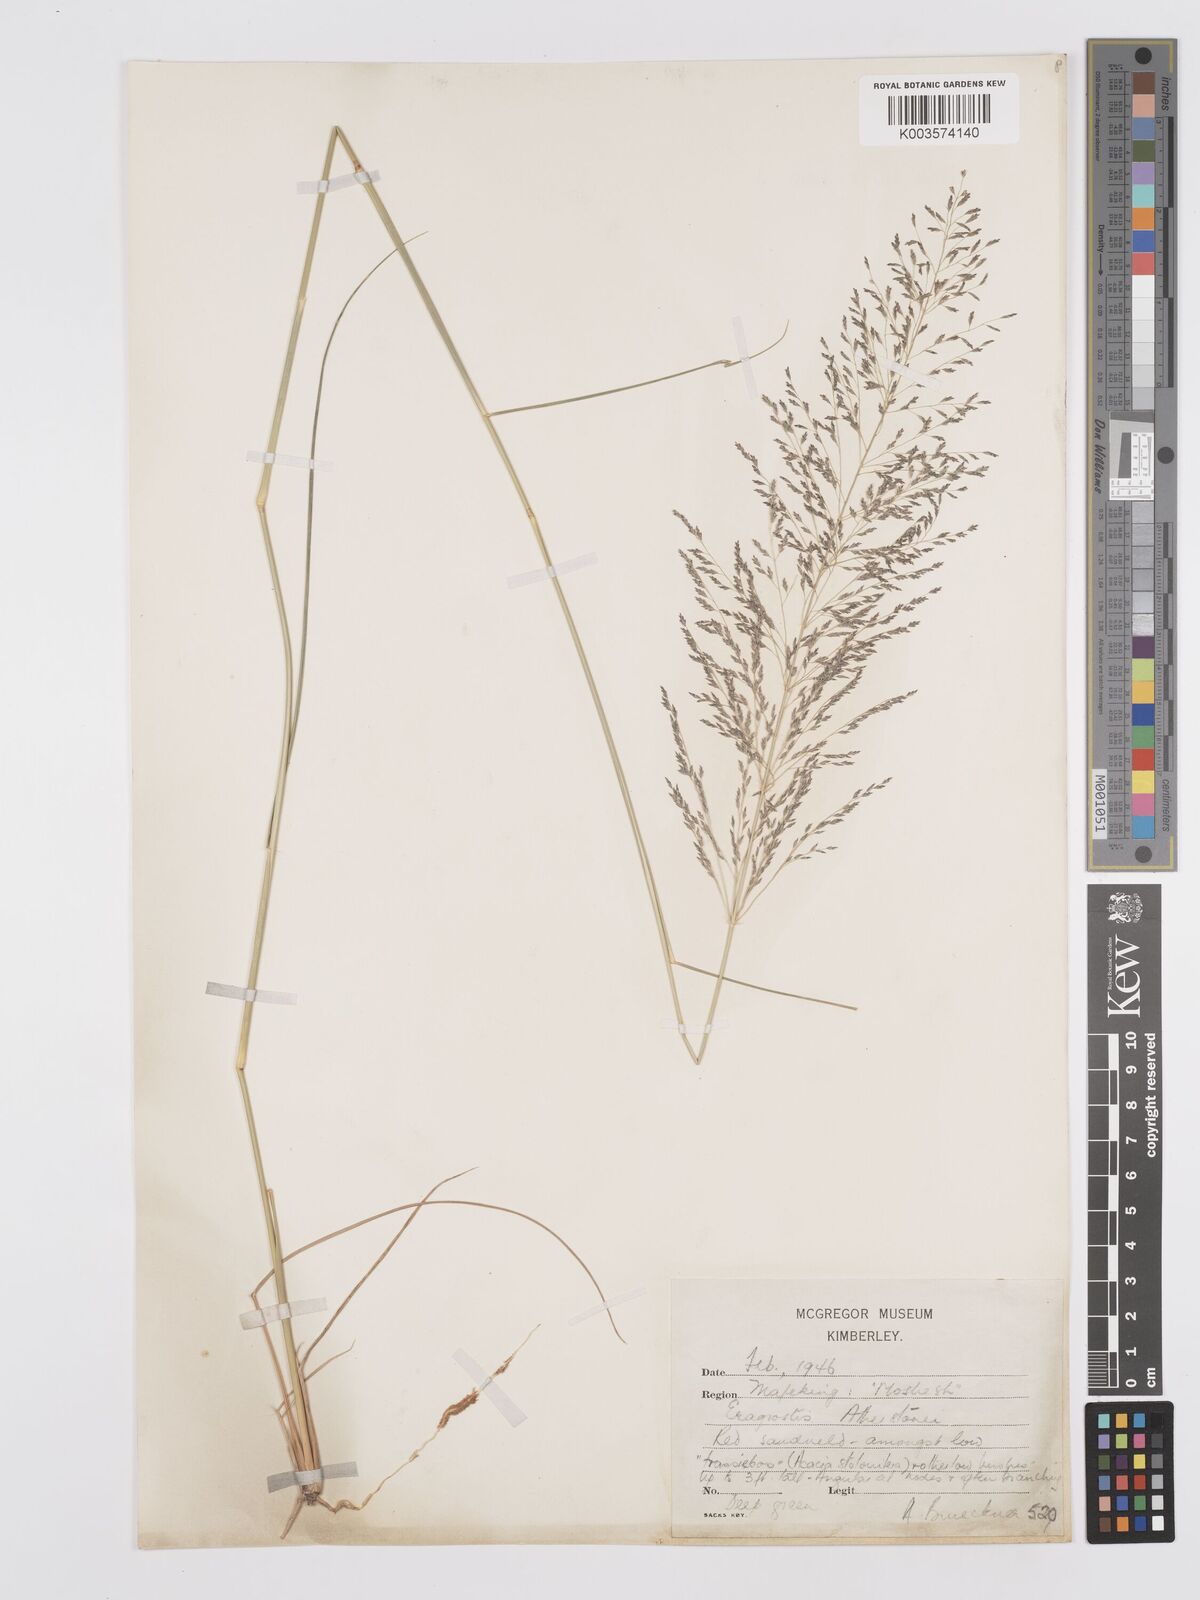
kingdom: Plantae
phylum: Tracheophyta
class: Liliopsida
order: Poales
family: Poaceae
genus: Eragrostis
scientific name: Eragrostis cylindriflora
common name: Cylinderflower lovegrass
